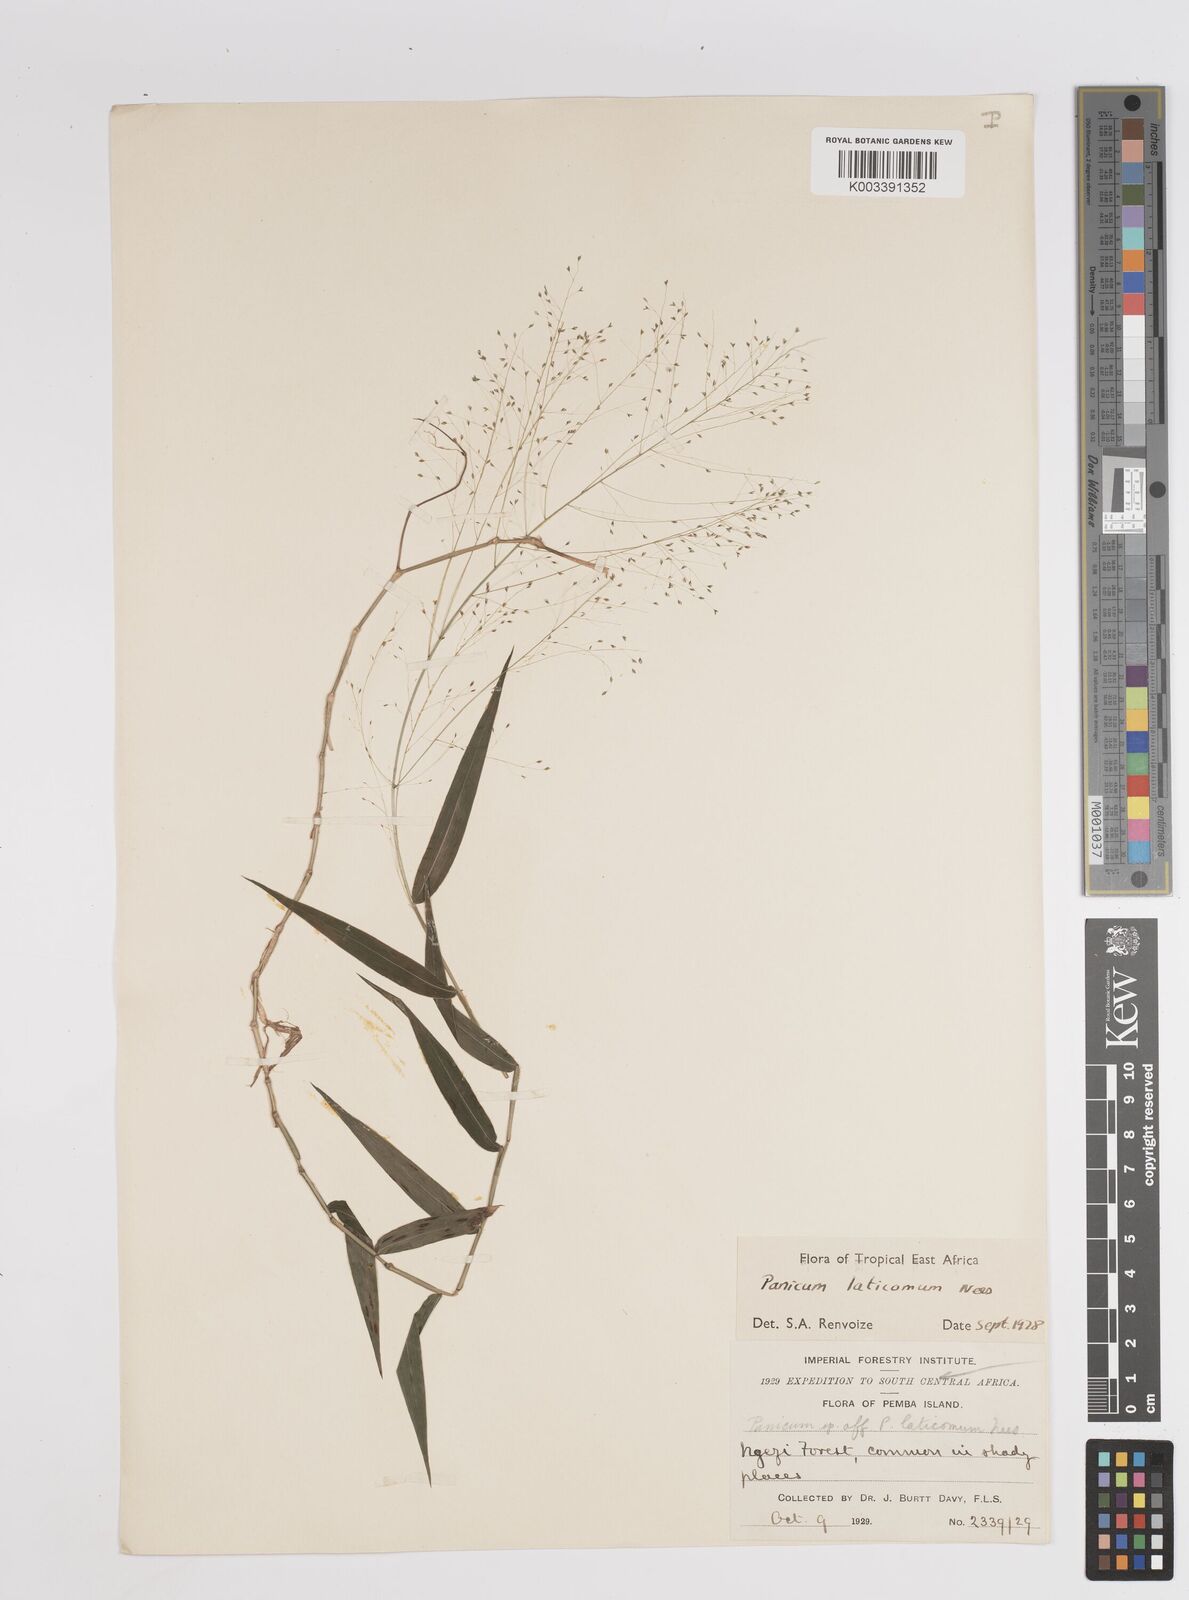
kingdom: Plantae
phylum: Tracheophyta
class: Liliopsida
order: Poales
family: Poaceae
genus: Panicum
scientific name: Panicum laticomum
